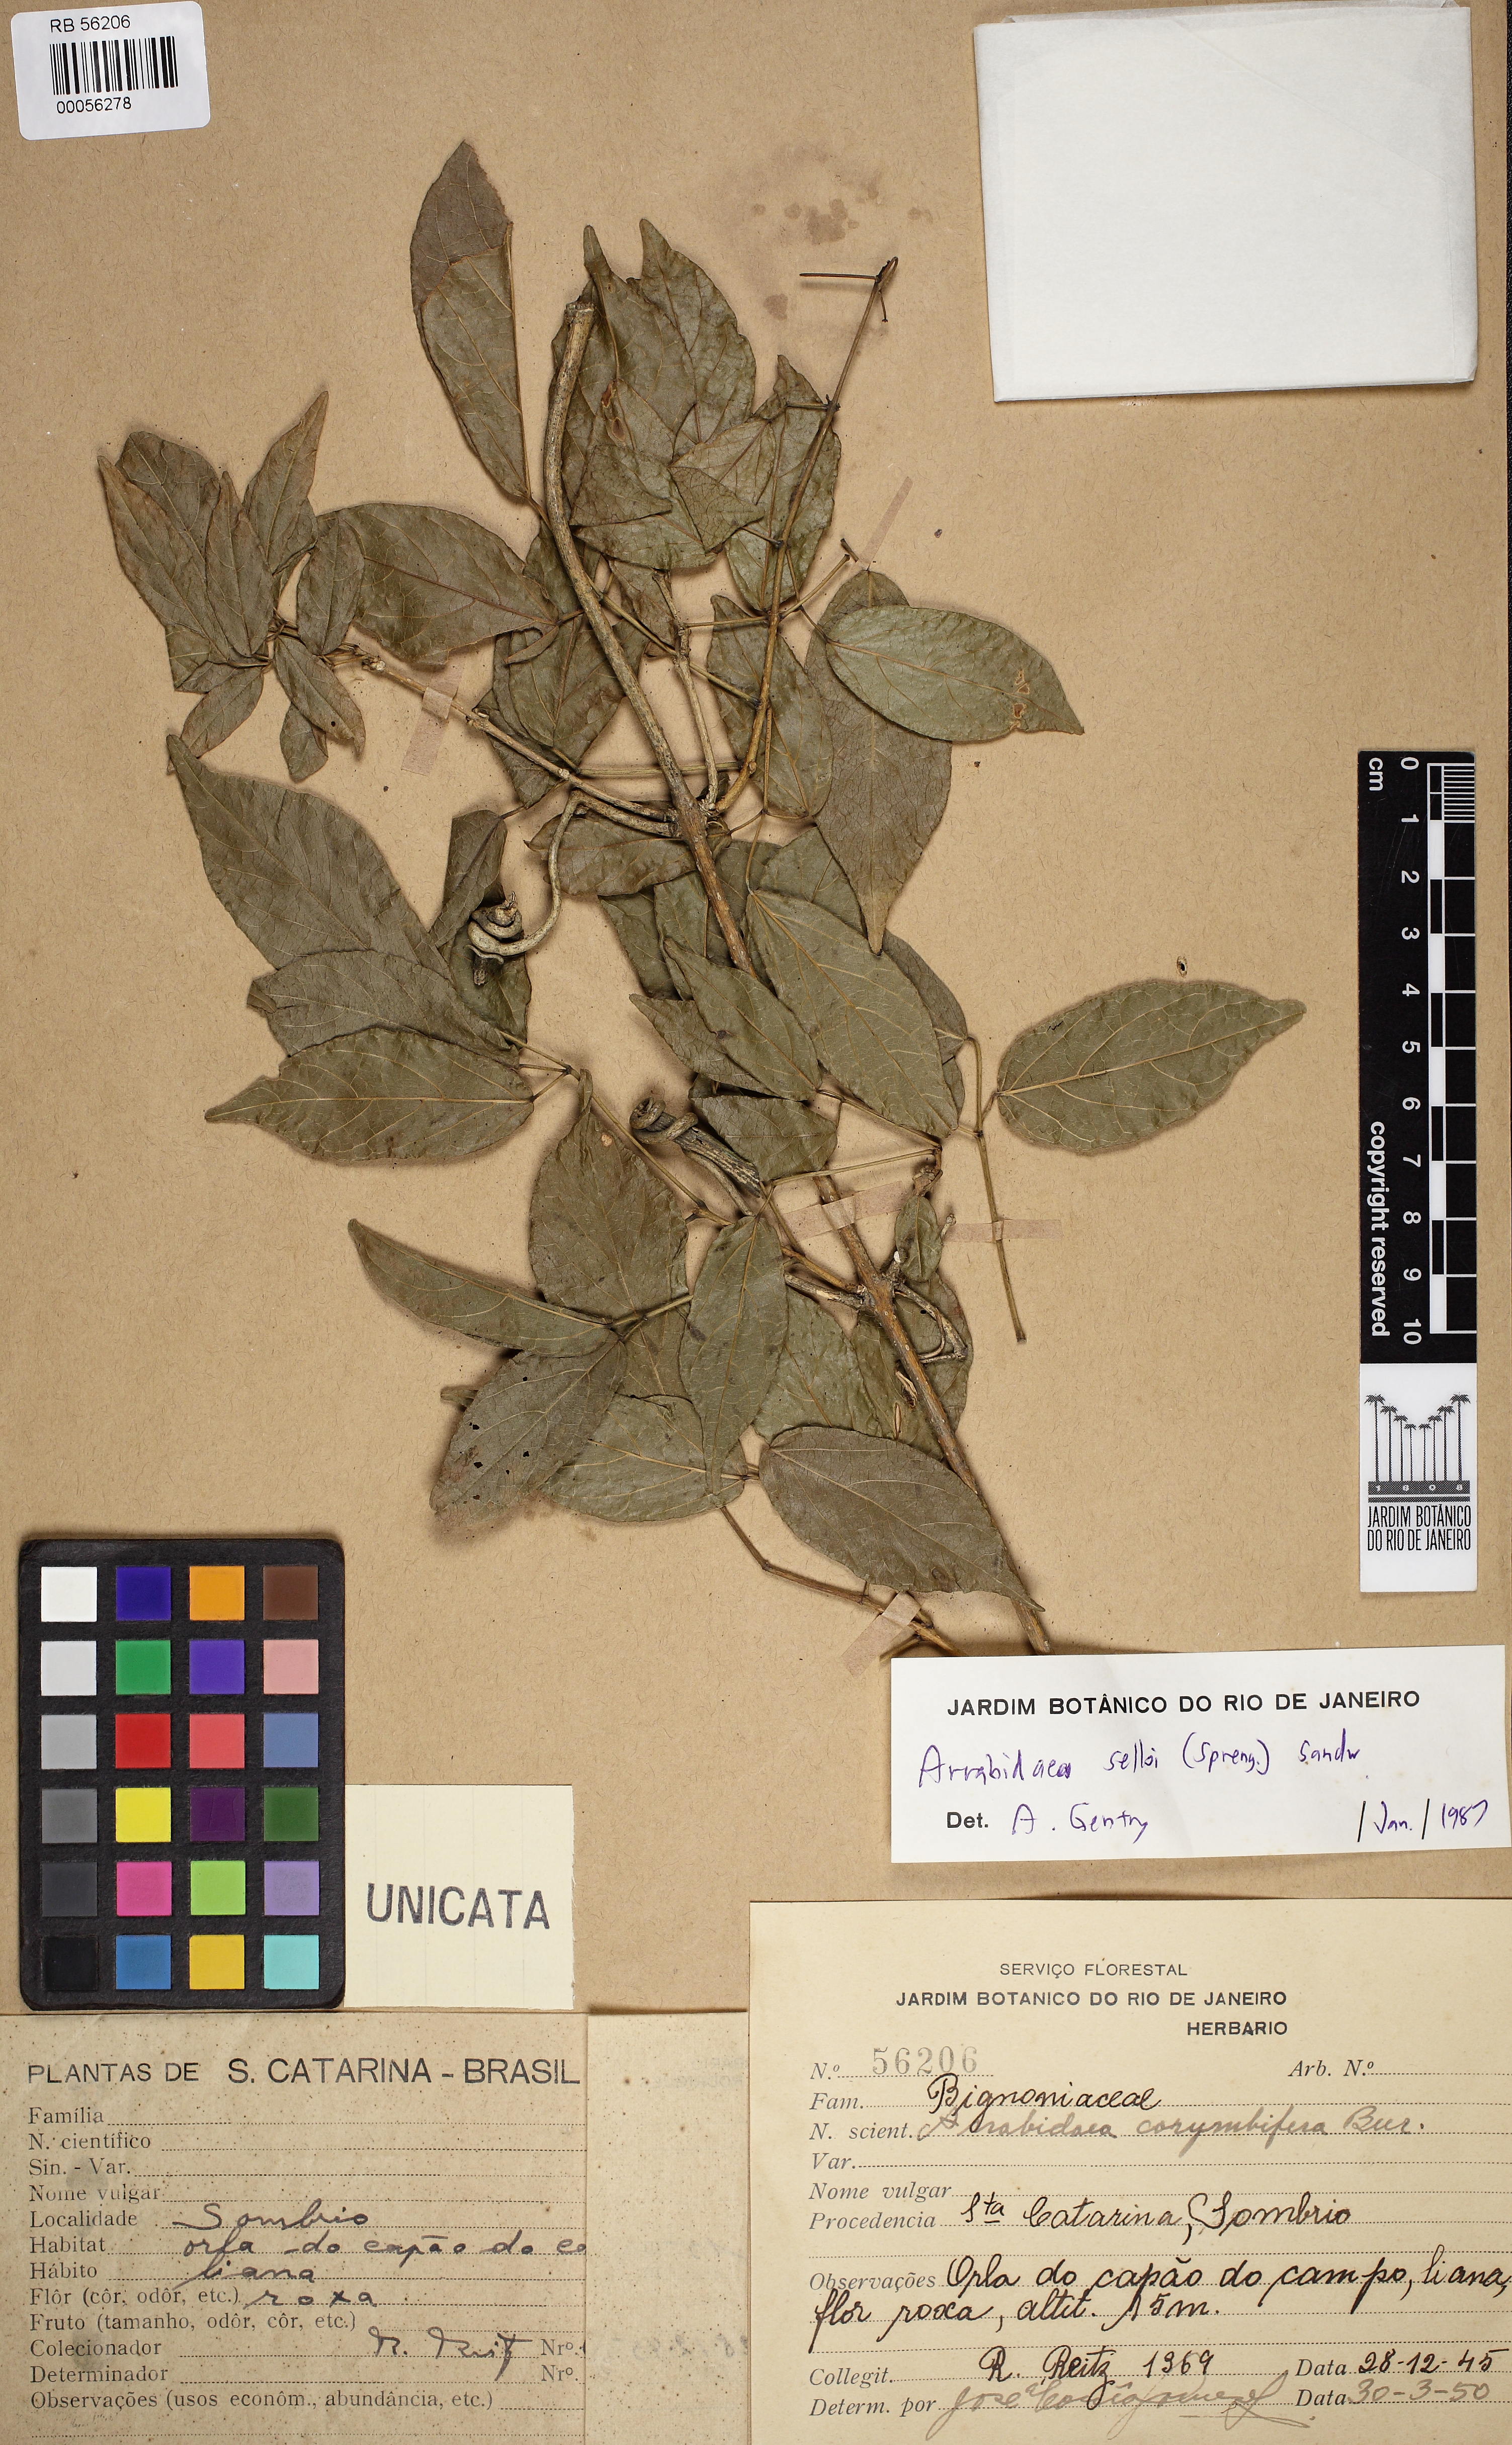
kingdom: Plantae
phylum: Tracheophyta
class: Magnoliopsida
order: Lamiales
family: Bignoniaceae
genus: Tanaecium
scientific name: Tanaecium selloi
